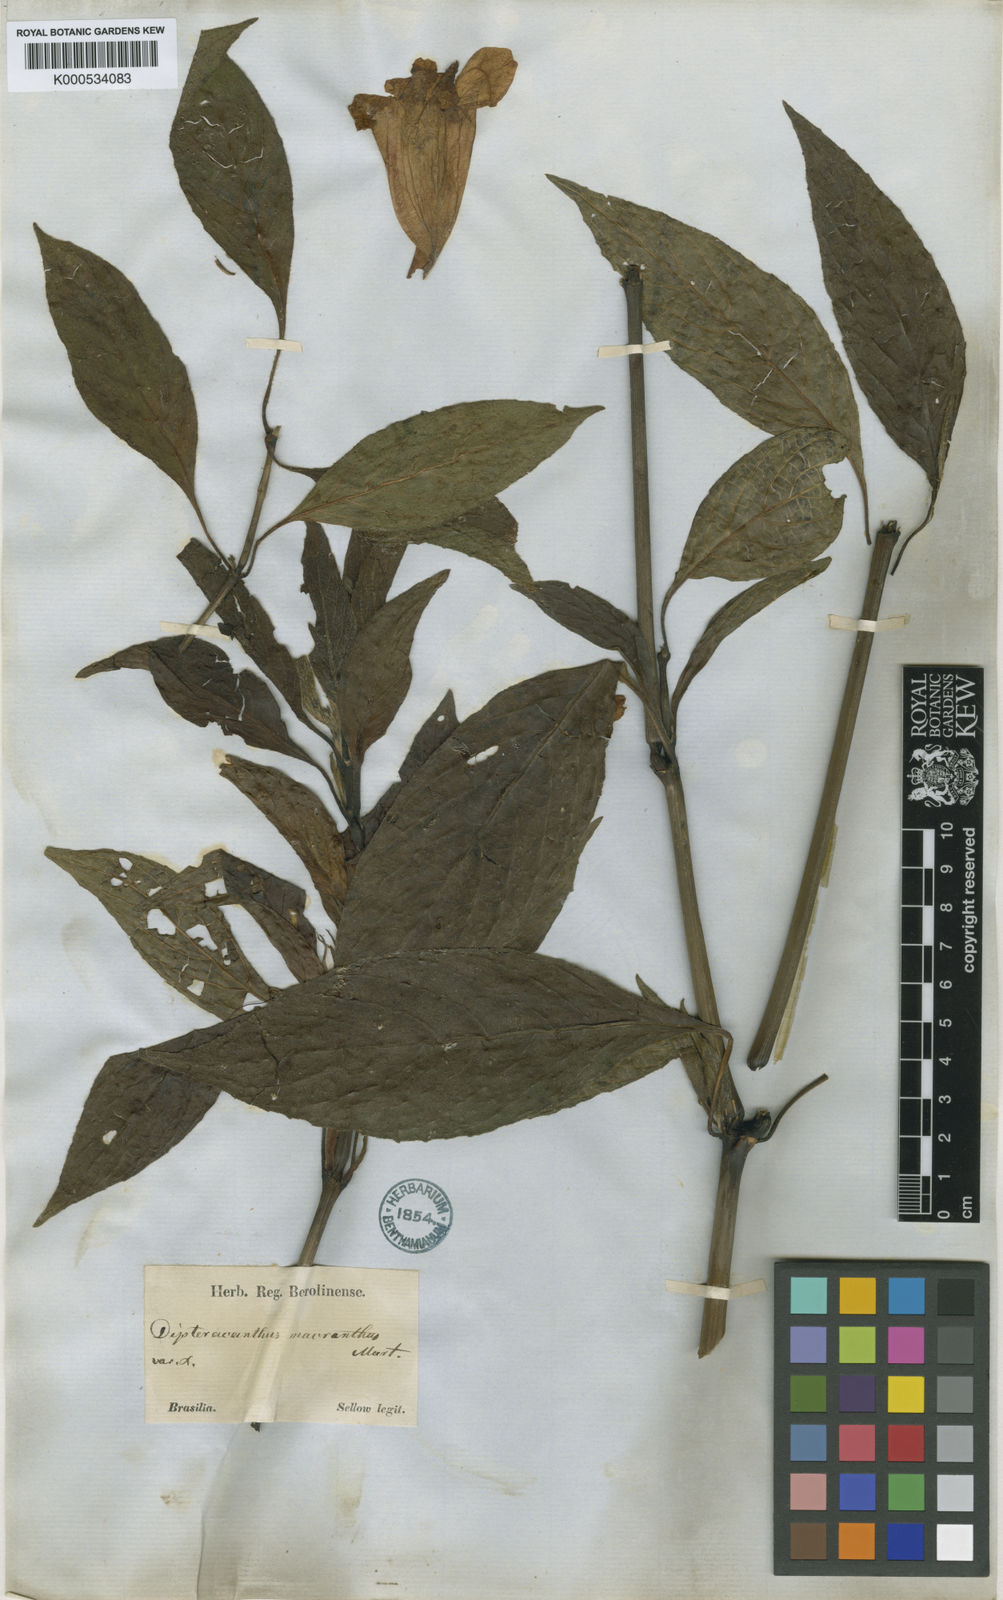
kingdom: Plantae
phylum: Tracheophyta
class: Magnoliopsida
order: Lamiales
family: Acanthaceae
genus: Ruellia
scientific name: Ruellia
